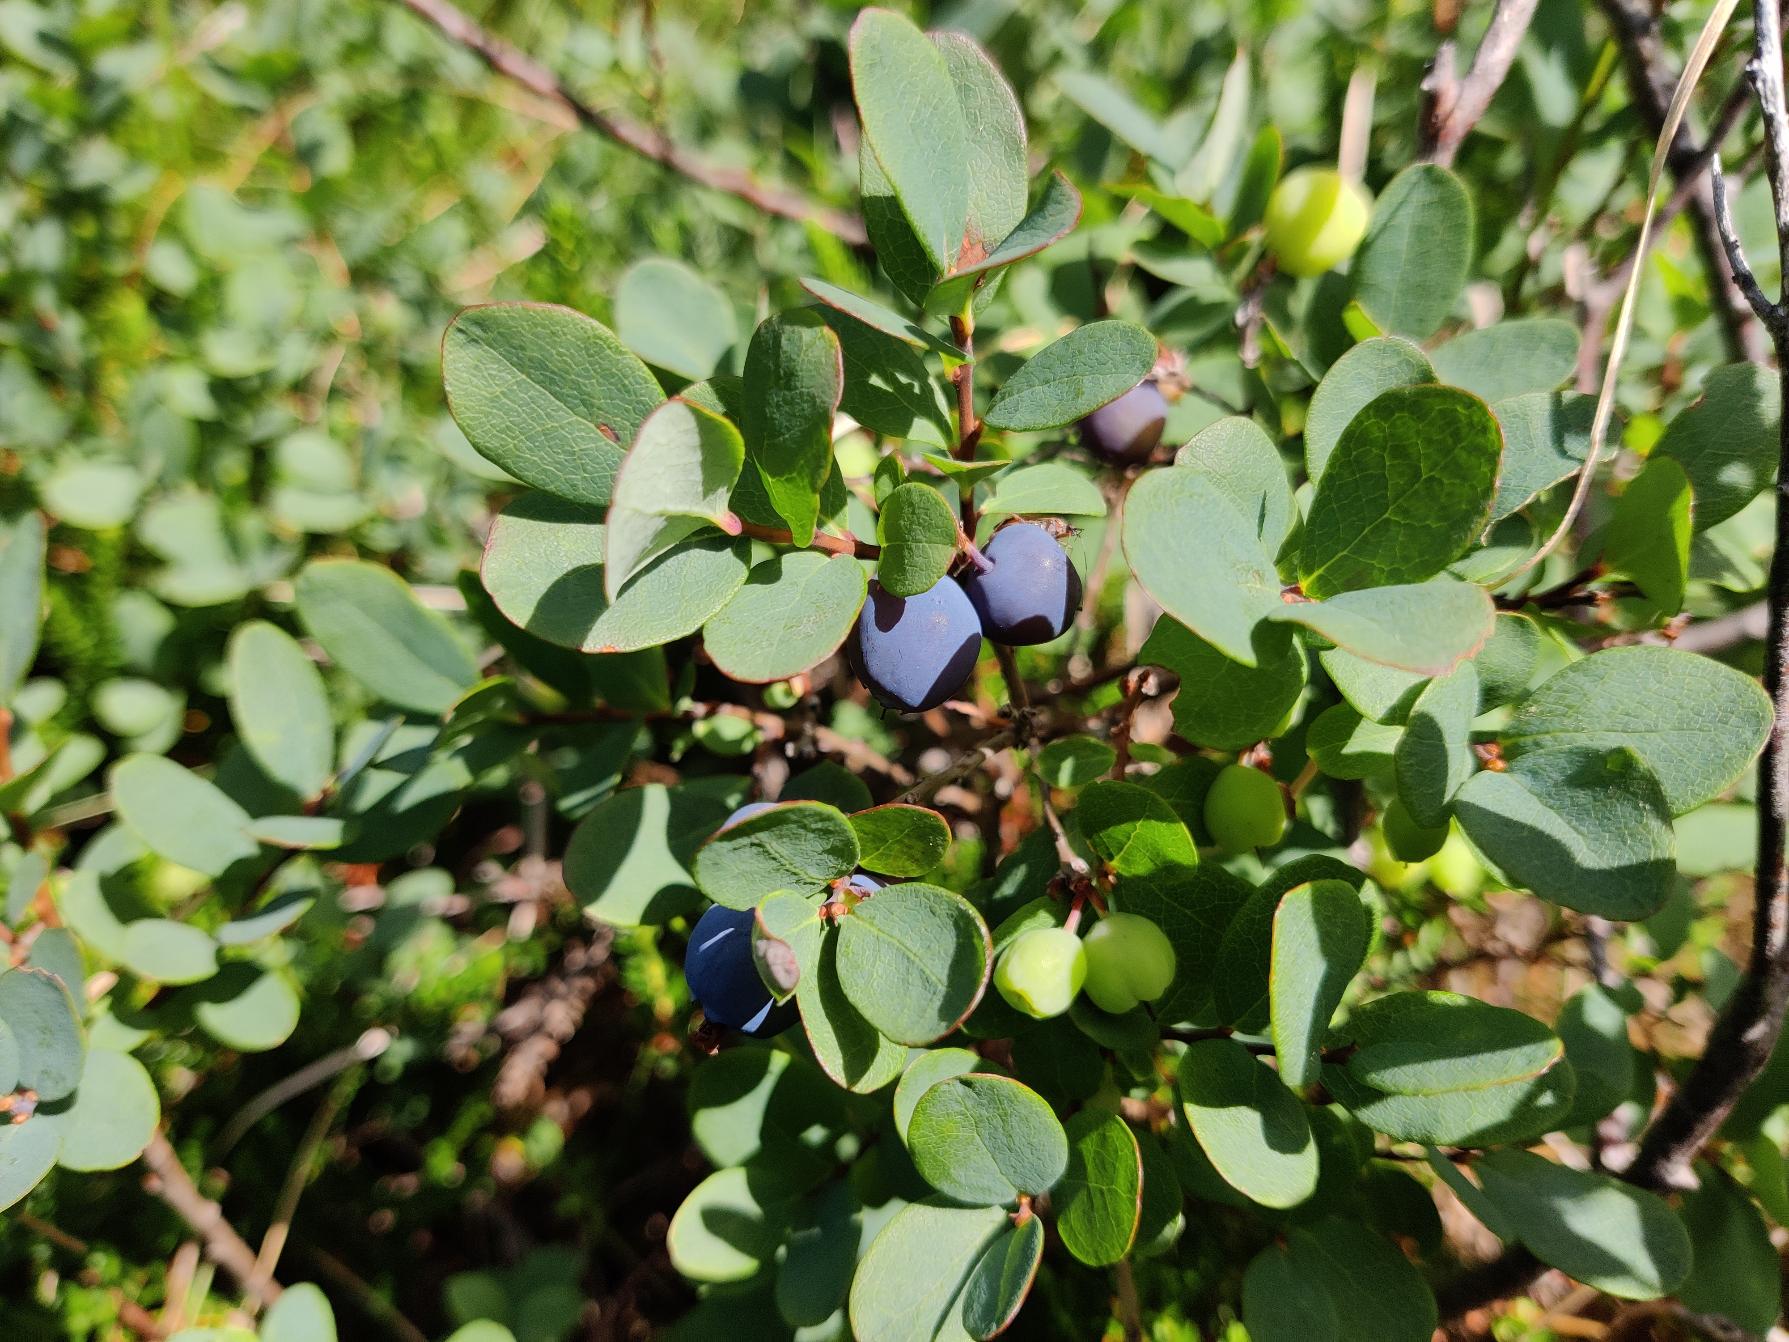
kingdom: Plantae
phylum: Tracheophyta
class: Magnoliopsida
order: Ericales
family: Ericaceae
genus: Vaccinium
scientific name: Vaccinium uliginosum
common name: Mose-bølle
